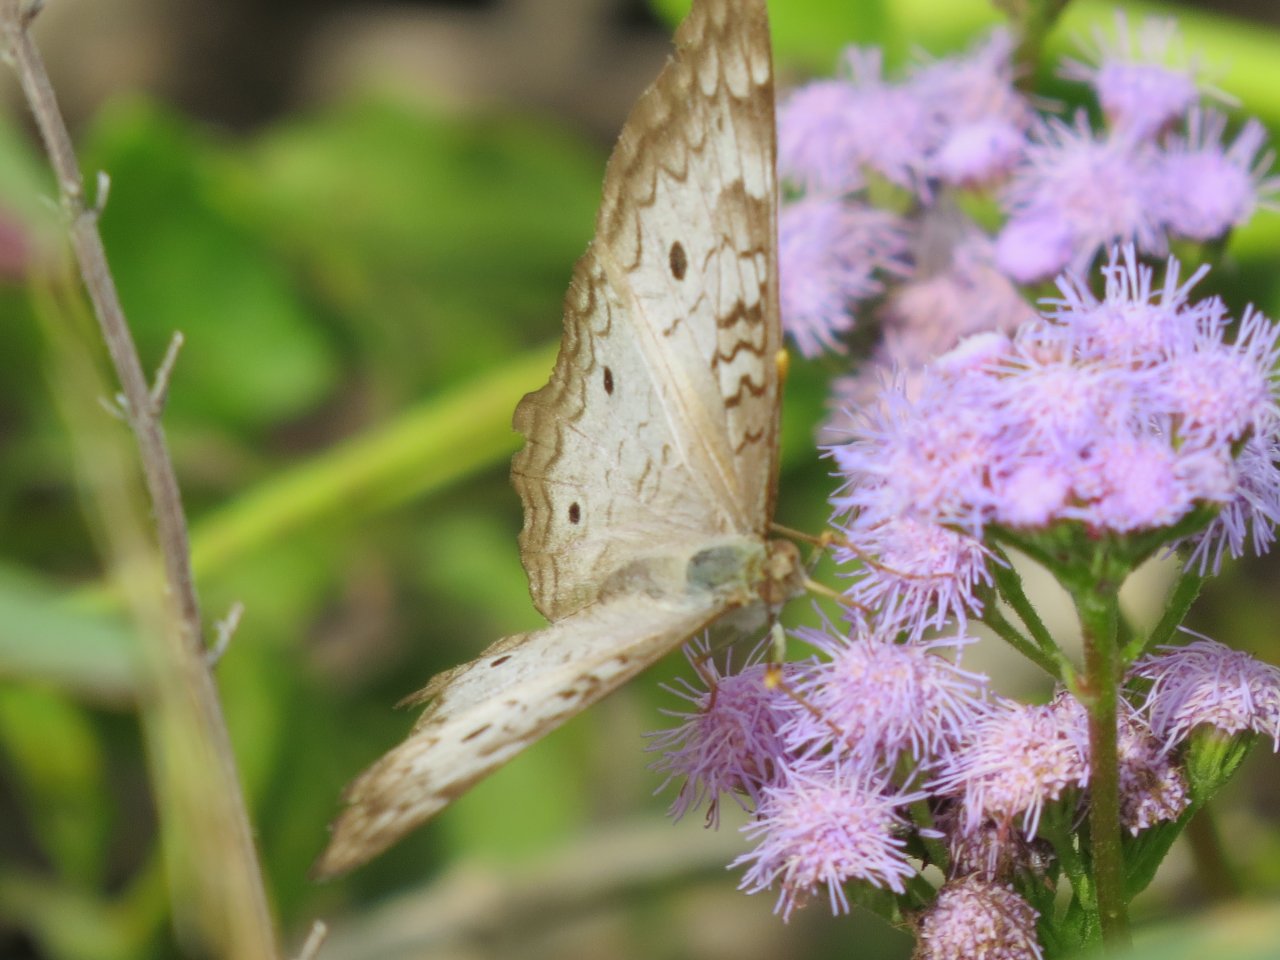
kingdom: Animalia
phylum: Arthropoda
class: Insecta
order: Lepidoptera
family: Nymphalidae
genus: Anartia
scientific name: Anartia jatrophae
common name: White Peacock
